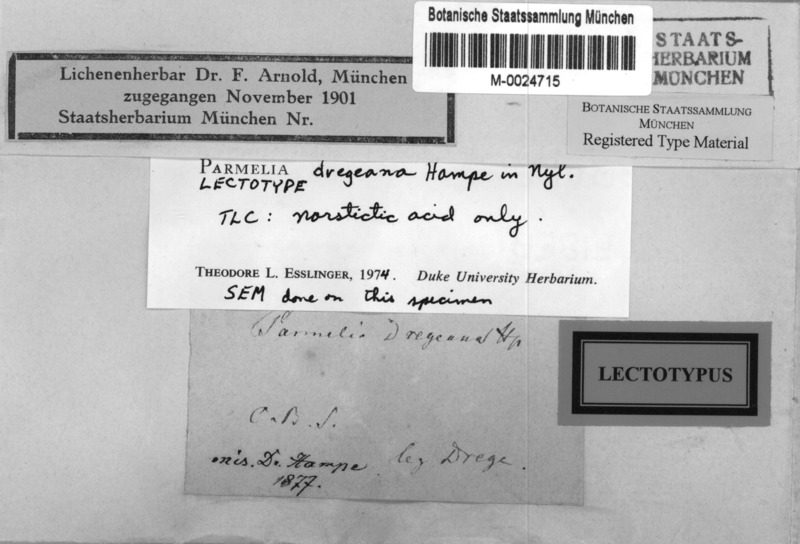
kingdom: Fungi
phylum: Ascomycota
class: Lecanoromycetes
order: Lecanorales
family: Parmeliaceae
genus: Xanthoparmelia
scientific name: Xanthoparmelia dregeana
